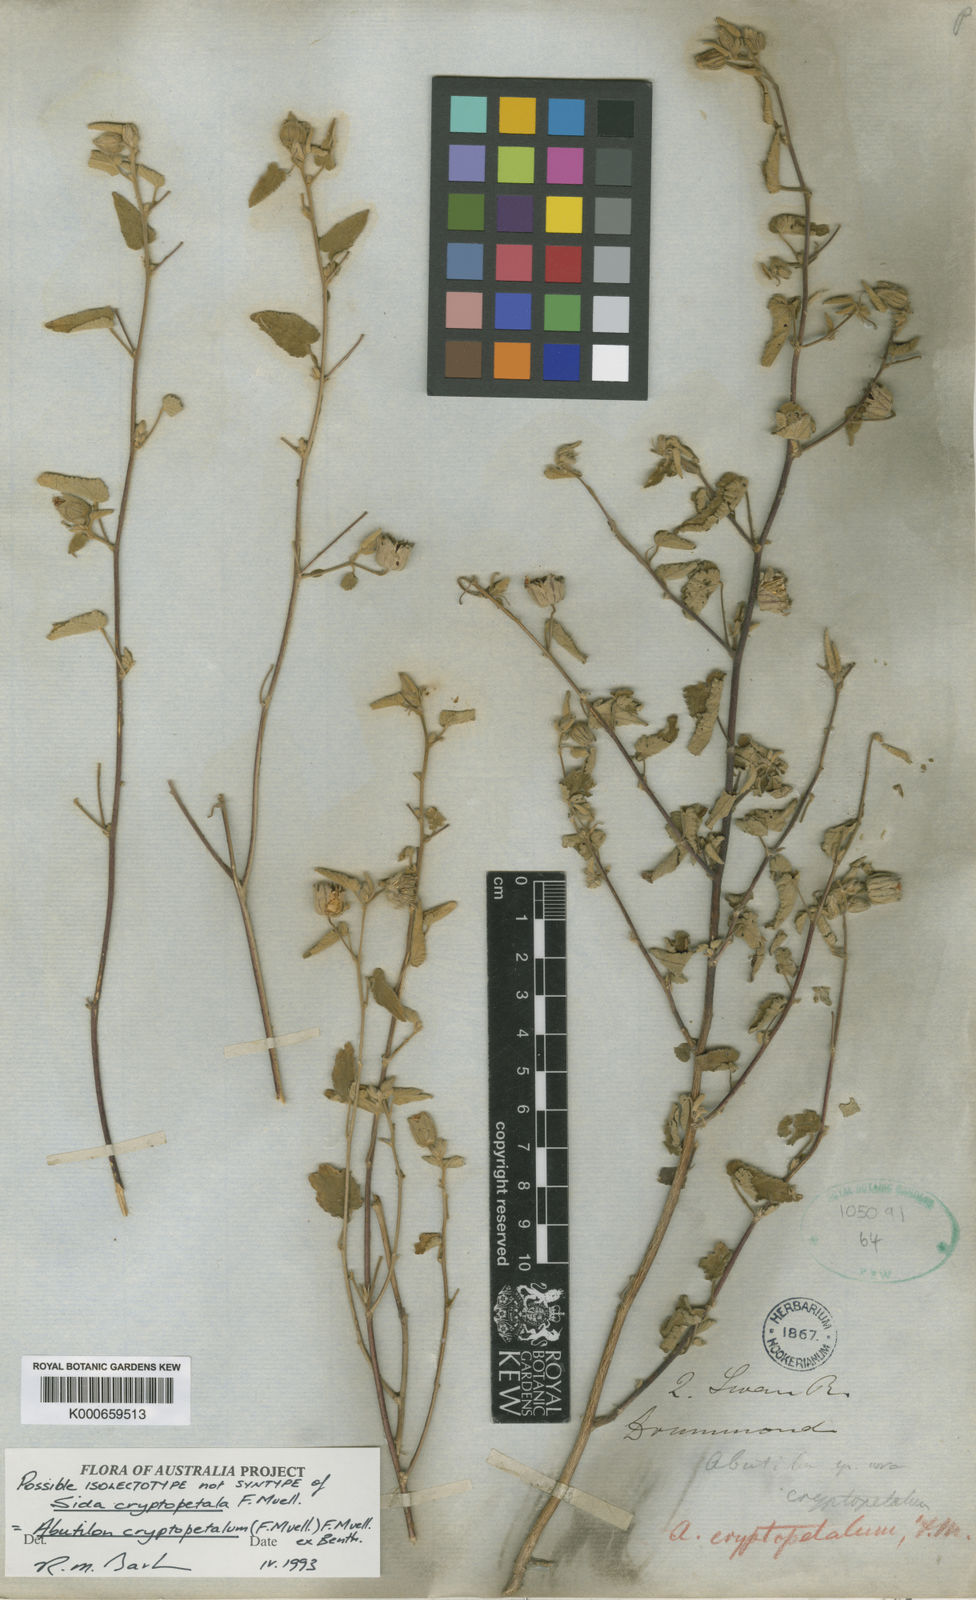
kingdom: Plantae
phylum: Tracheophyta
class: Magnoliopsida
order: Malvales
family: Malvaceae
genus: Abutilon
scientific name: Abutilon cryptopetalum
